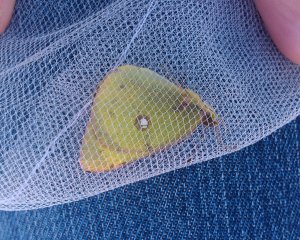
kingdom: Animalia
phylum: Arthropoda
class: Insecta
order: Lepidoptera
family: Pieridae
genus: Colias
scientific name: Colias philodice
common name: Clouded Sulphur
